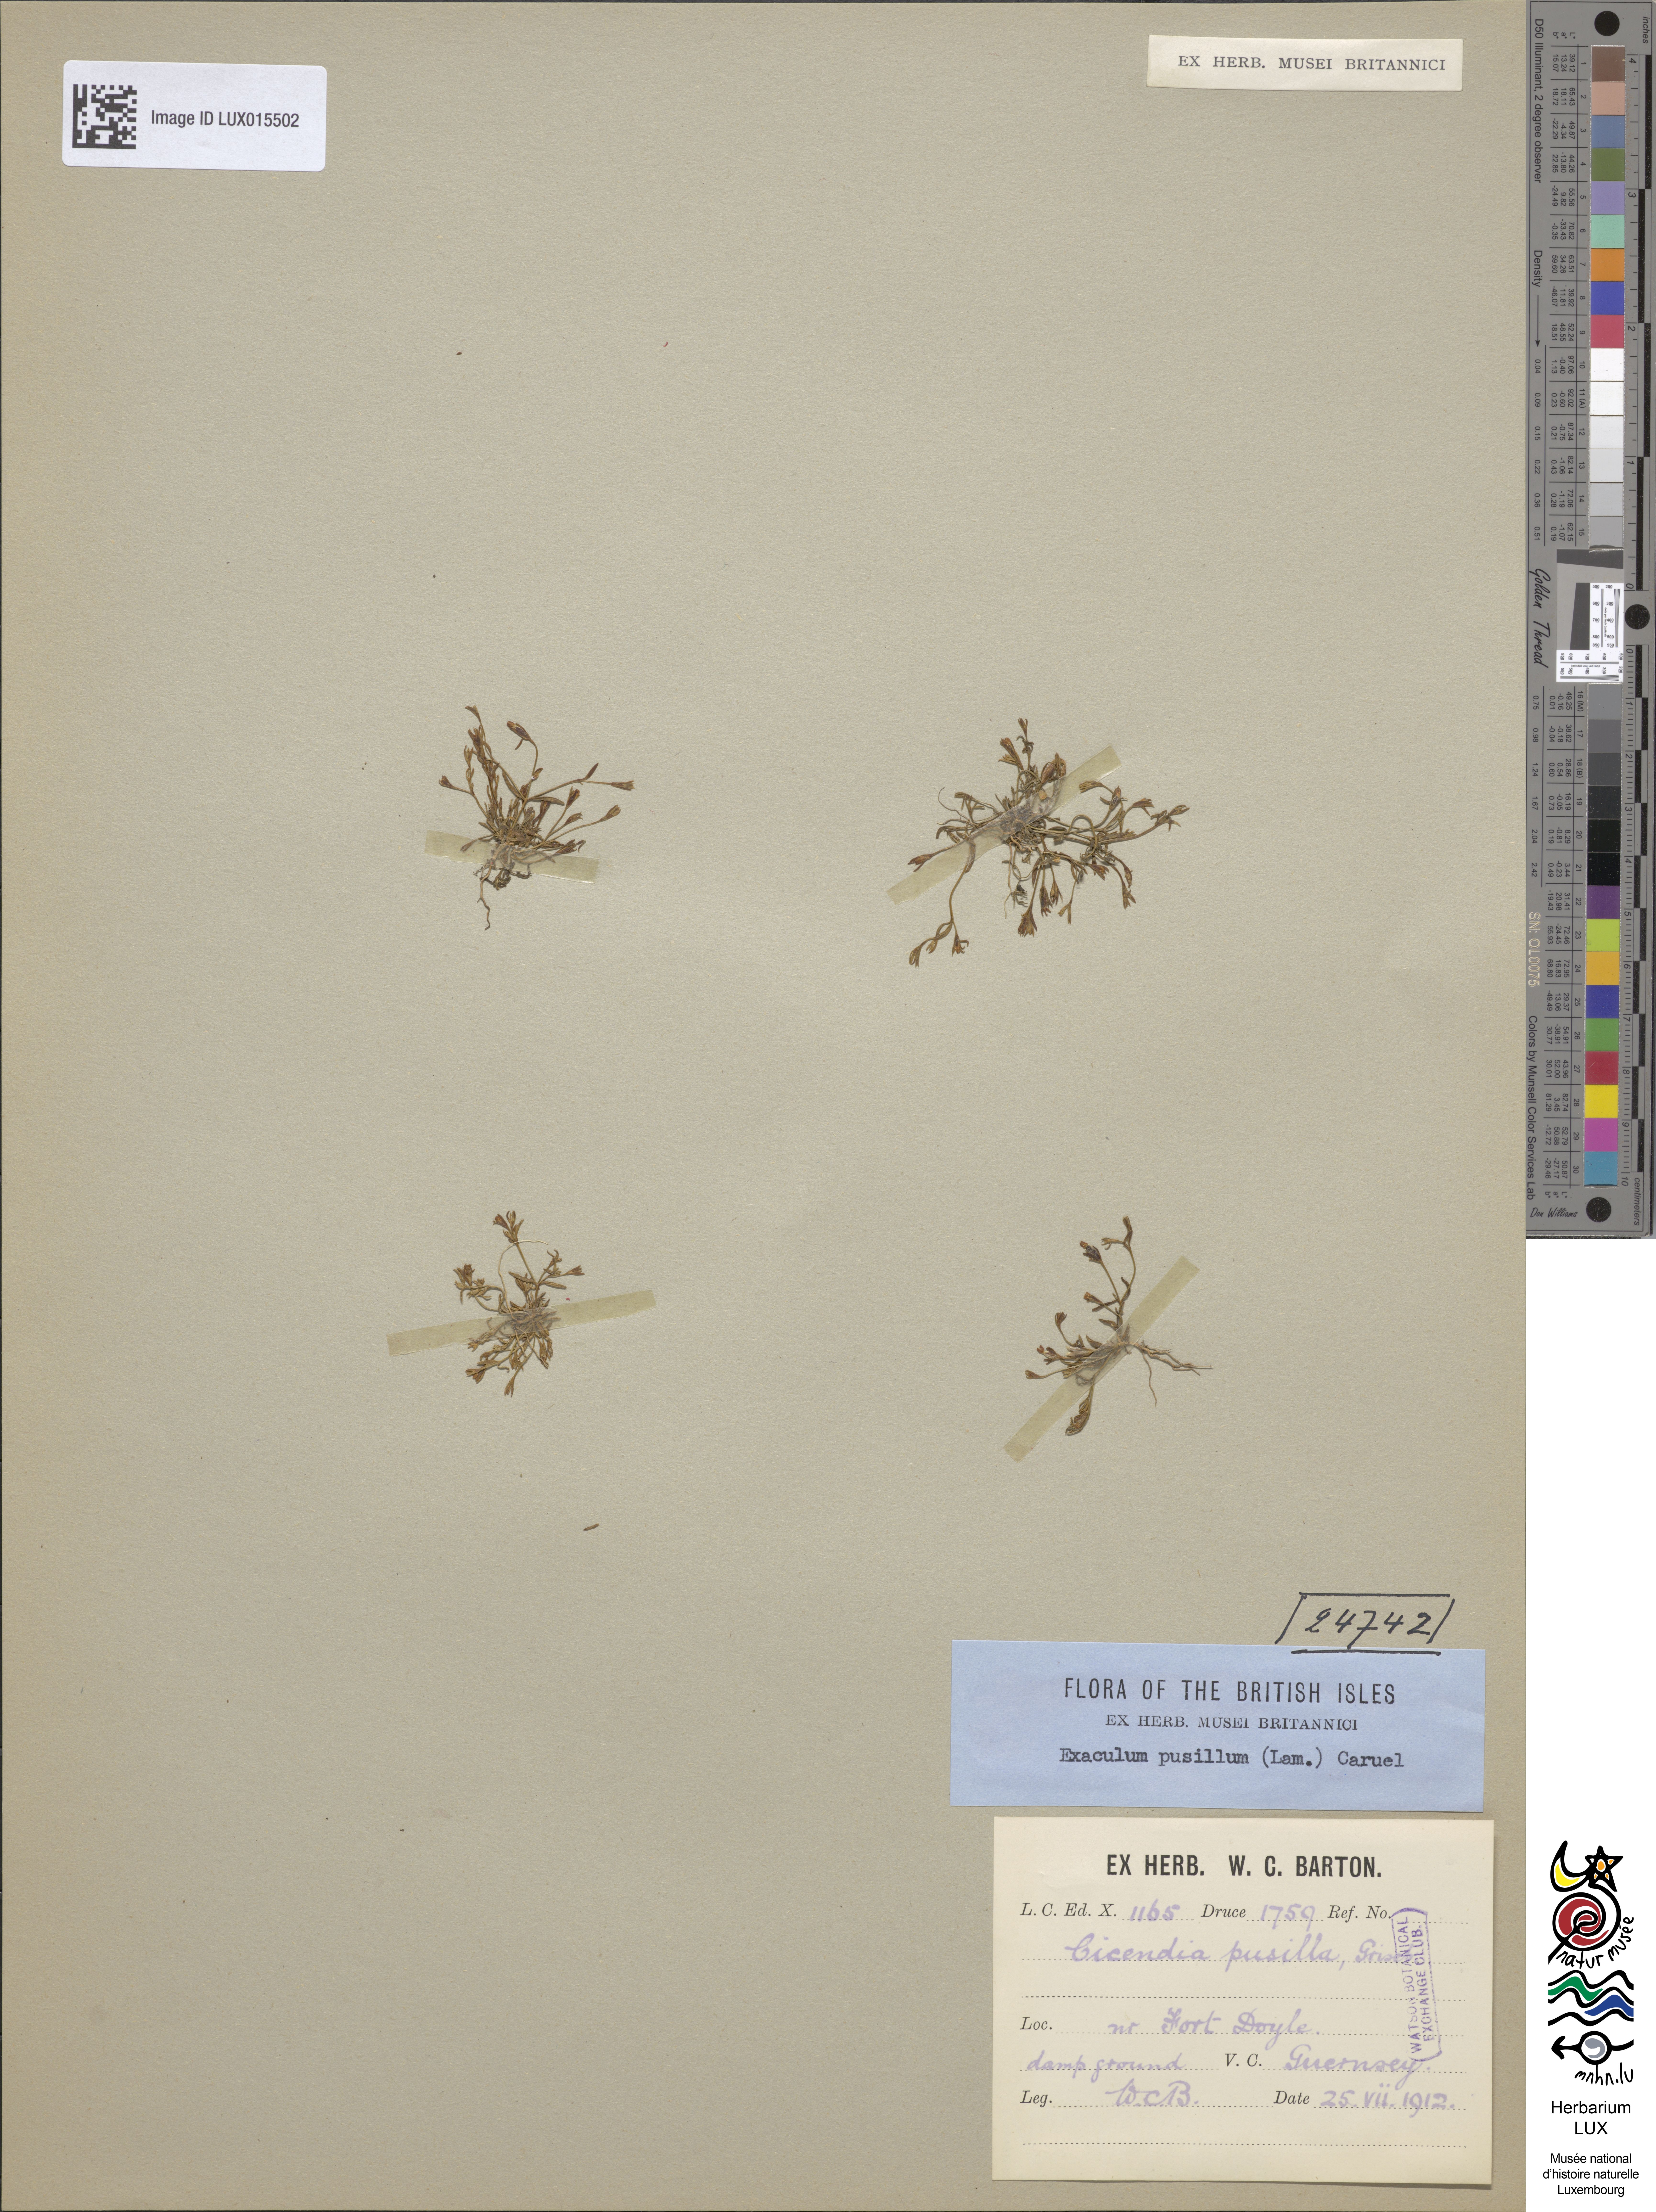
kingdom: Plantae
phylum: Tracheophyta
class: Magnoliopsida
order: Gentianales
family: Gentianaceae
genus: Exaculum
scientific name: Exaculum pusillum
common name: Guernsey centaury
